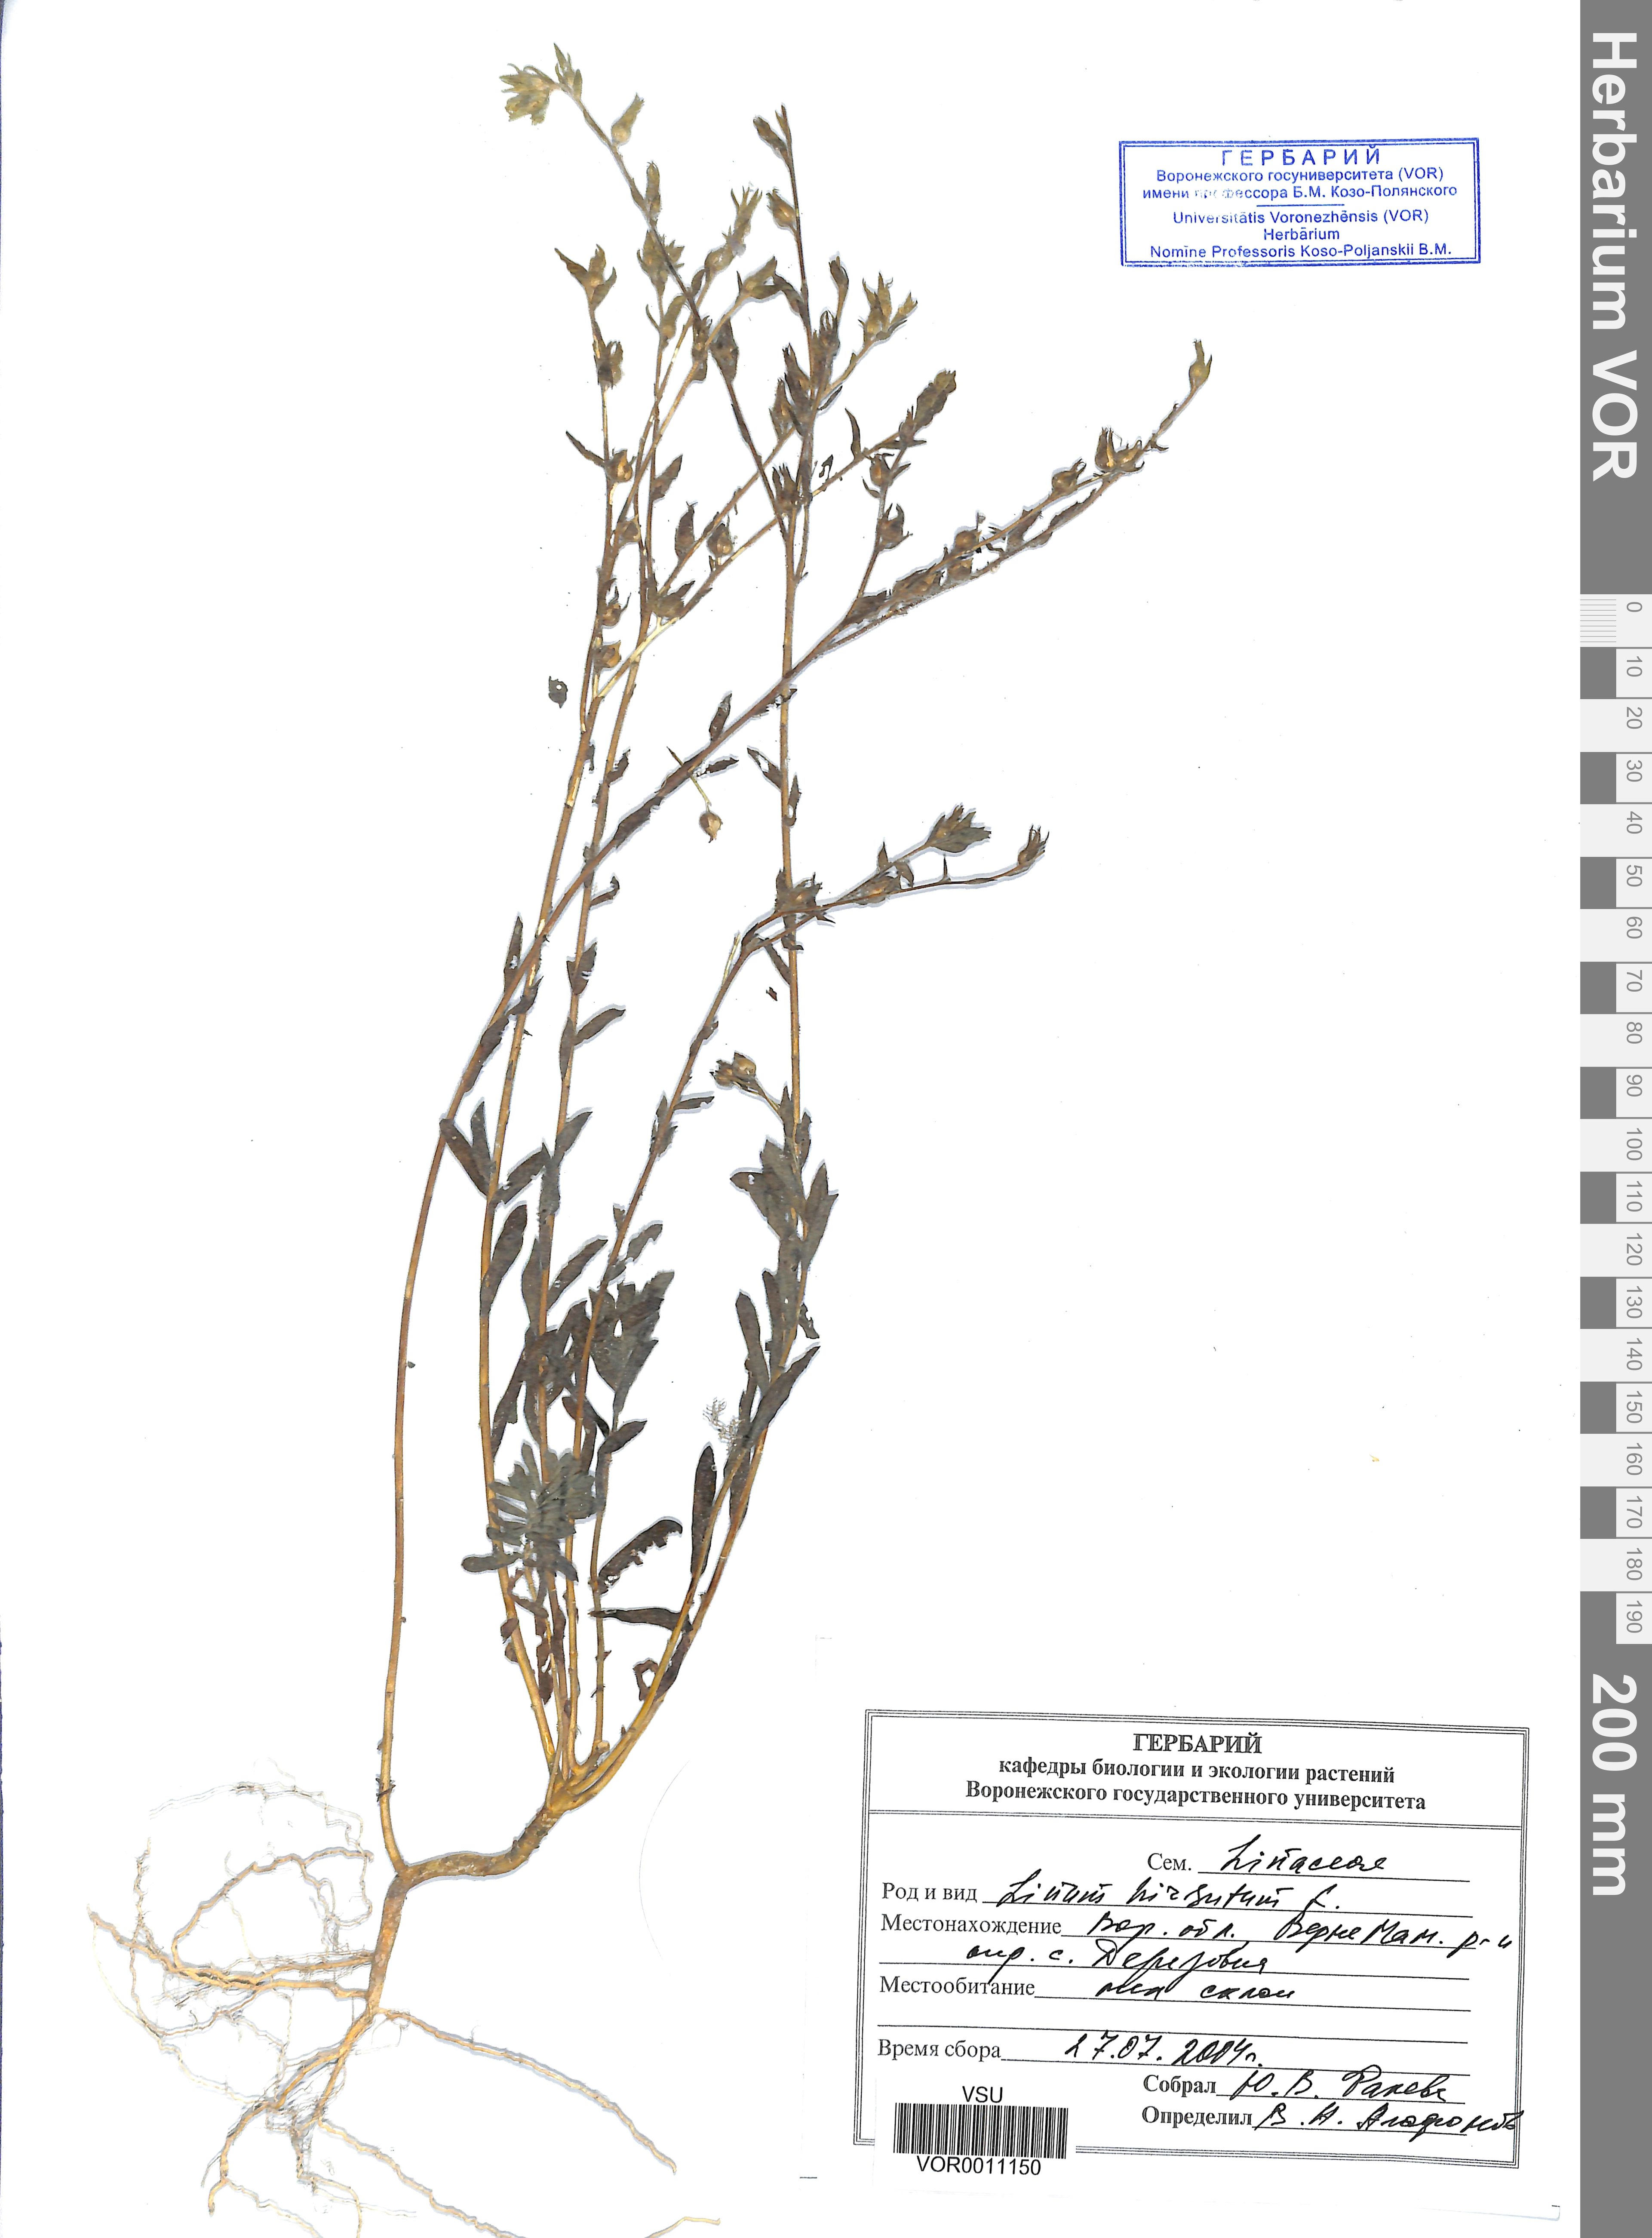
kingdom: Plantae
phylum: Tracheophyta
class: Magnoliopsida
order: Malpighiales
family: Linaceae
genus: Linum
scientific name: Linum hirsutum
